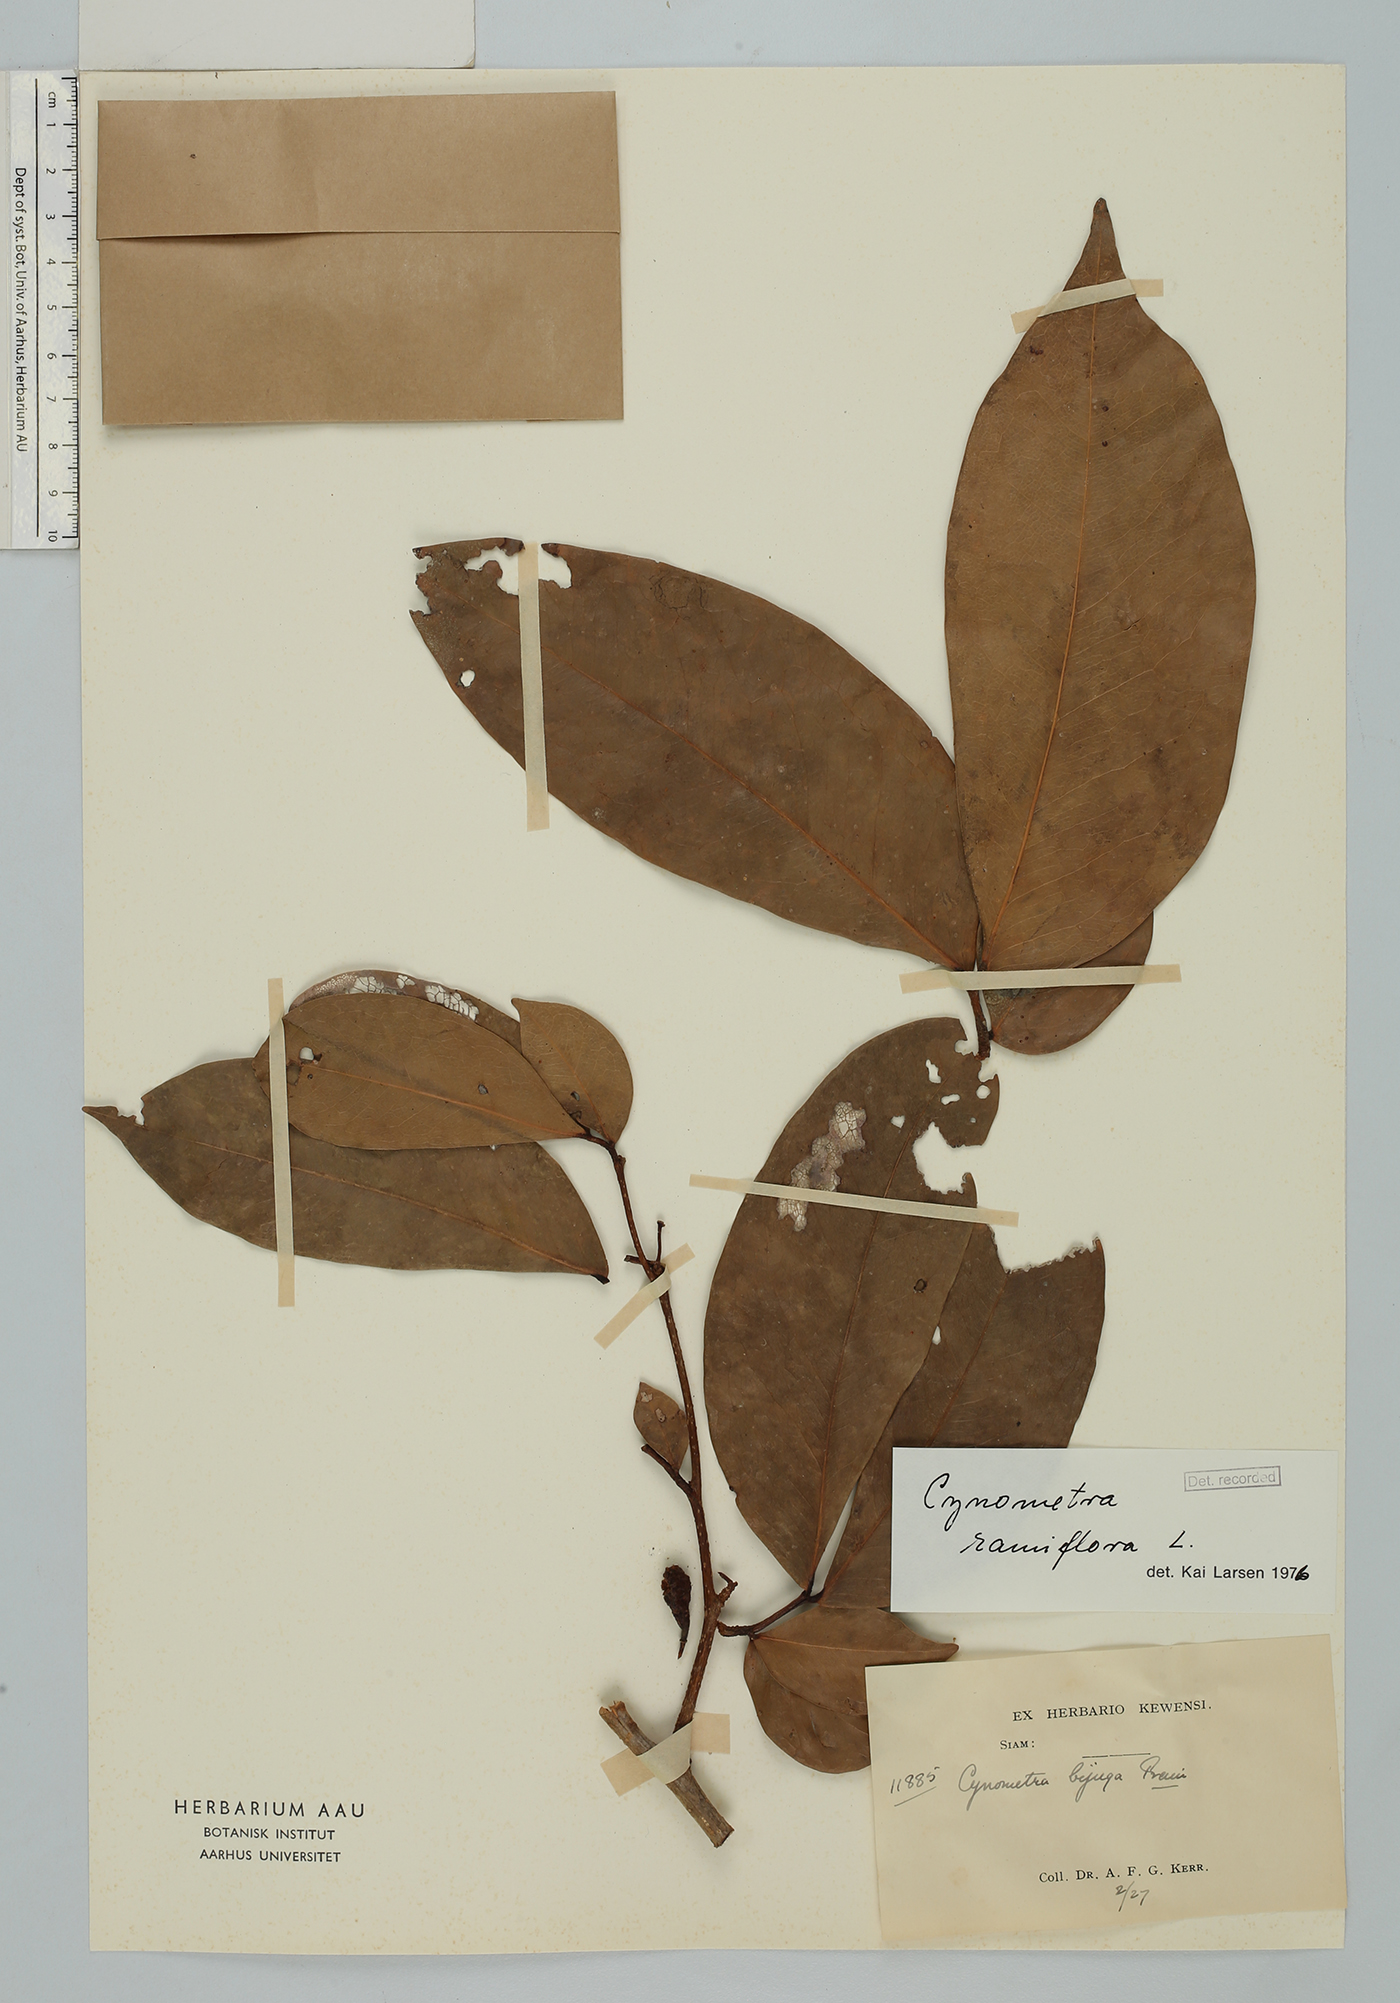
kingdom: Plantae
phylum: Tracheophyta
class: Magnoliopsida
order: Fabales
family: Fabaceae
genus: Cynometra
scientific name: Cynometra ramiflora
